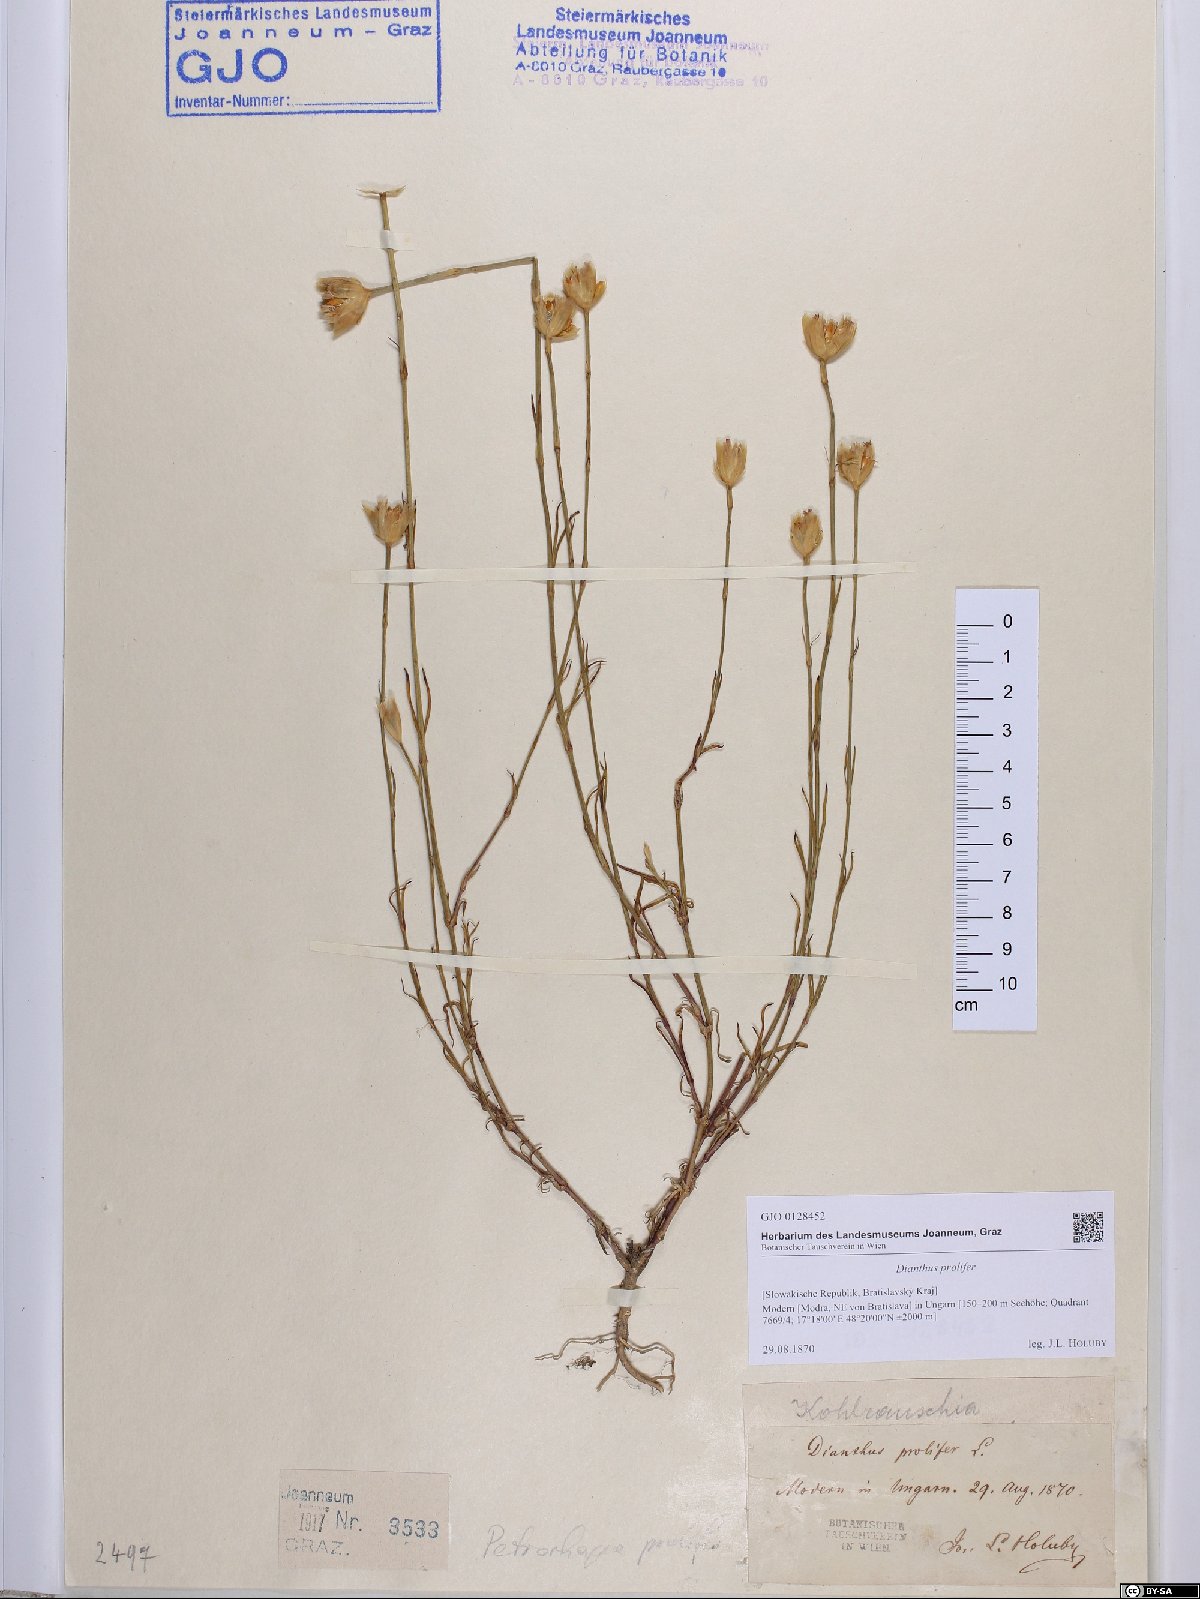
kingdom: Plantae
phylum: Tracheophyta
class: Magnoliopsida
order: Caryophyllales
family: Caryophyllaceae
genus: Petrorhagia
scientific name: Petrorhagia prolifera
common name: Proliferous pink
